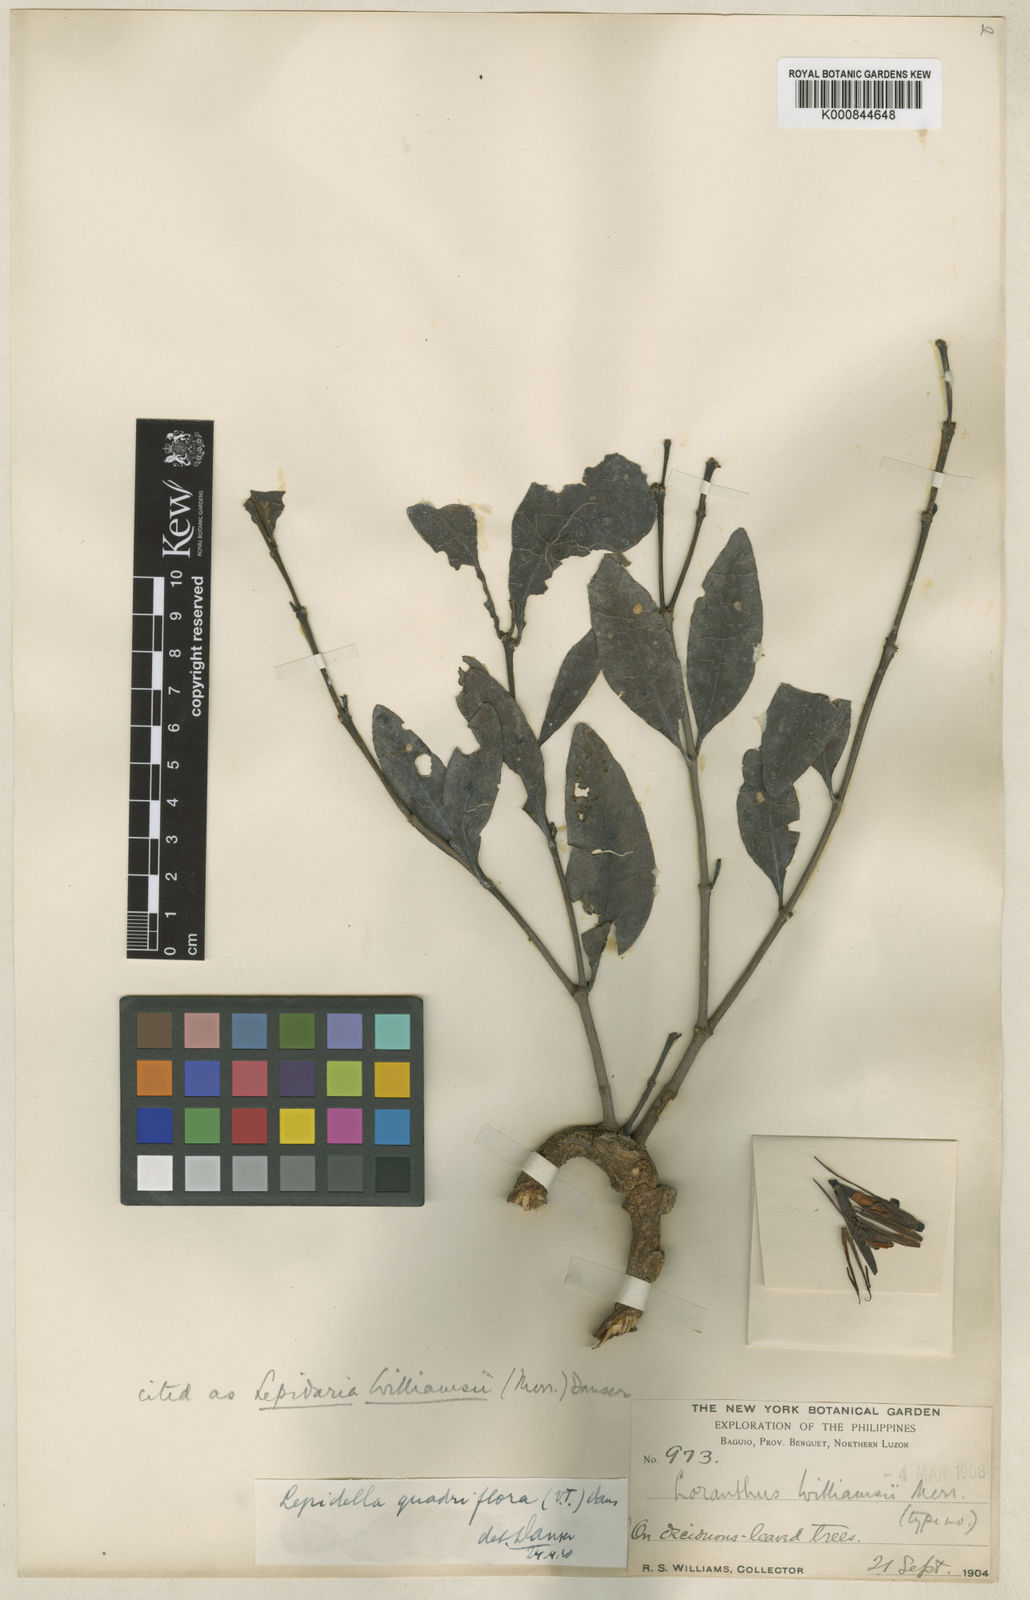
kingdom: Plantae
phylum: Tracheophyta
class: Magnoliopsida
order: Santalales
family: Loranthaceae
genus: Lepidaria
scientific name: Lepidaria quadriflora
